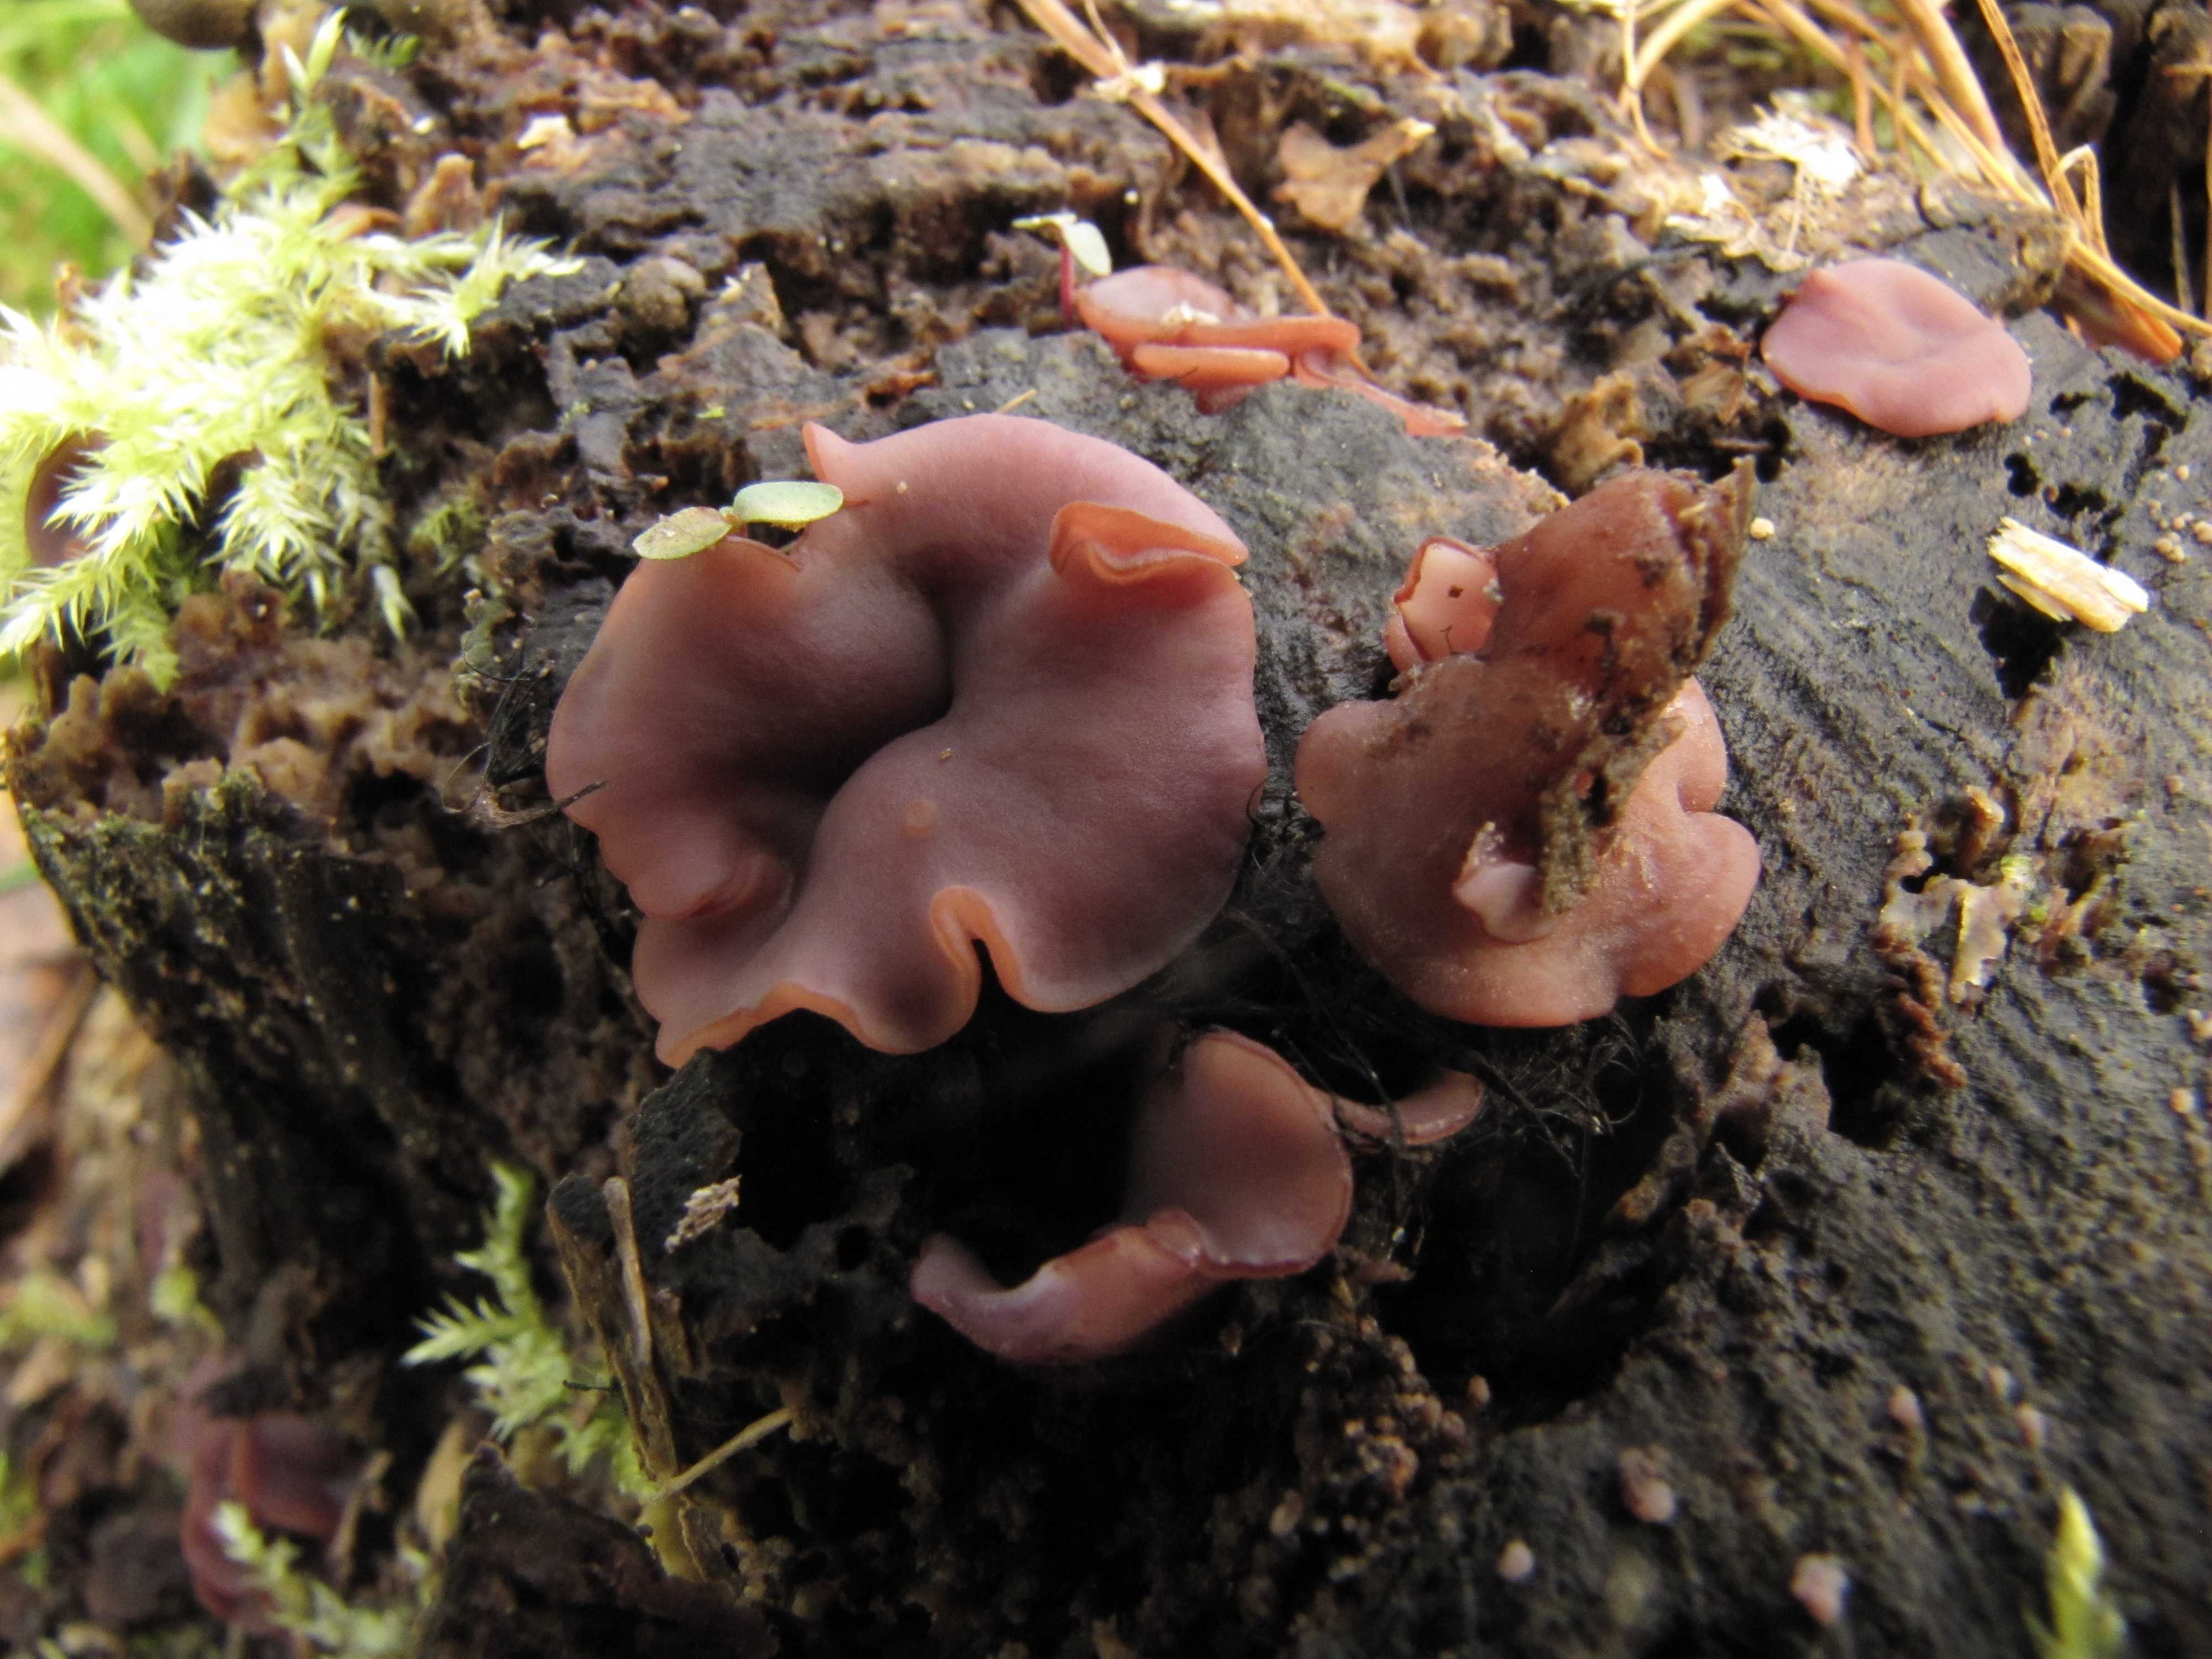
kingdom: Fungi
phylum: Ascomycota
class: Leotiomycetes
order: Helotiales
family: Gelatinodiscaceae
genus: Ascocoryne
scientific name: Ascocoryne cylichnium
